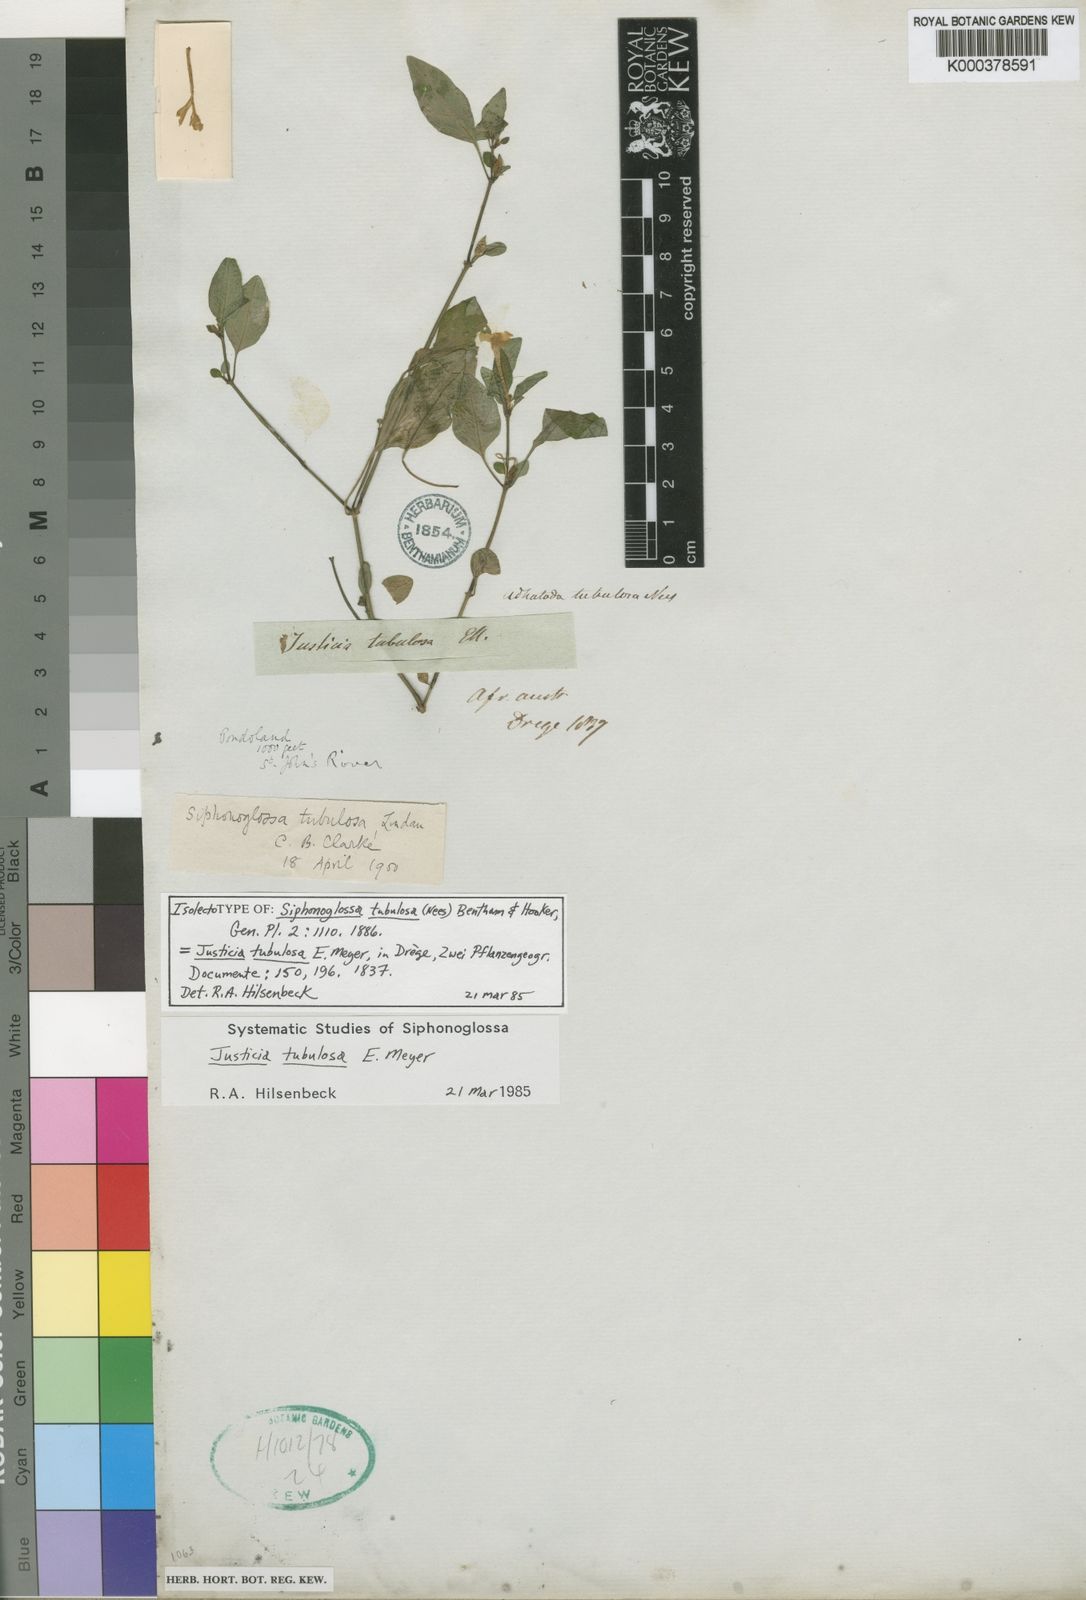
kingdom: Plantae
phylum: Tracheophyta
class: Magnoliopsida
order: Lamiales
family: Acanthaceae
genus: Justicia
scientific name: Justicia
